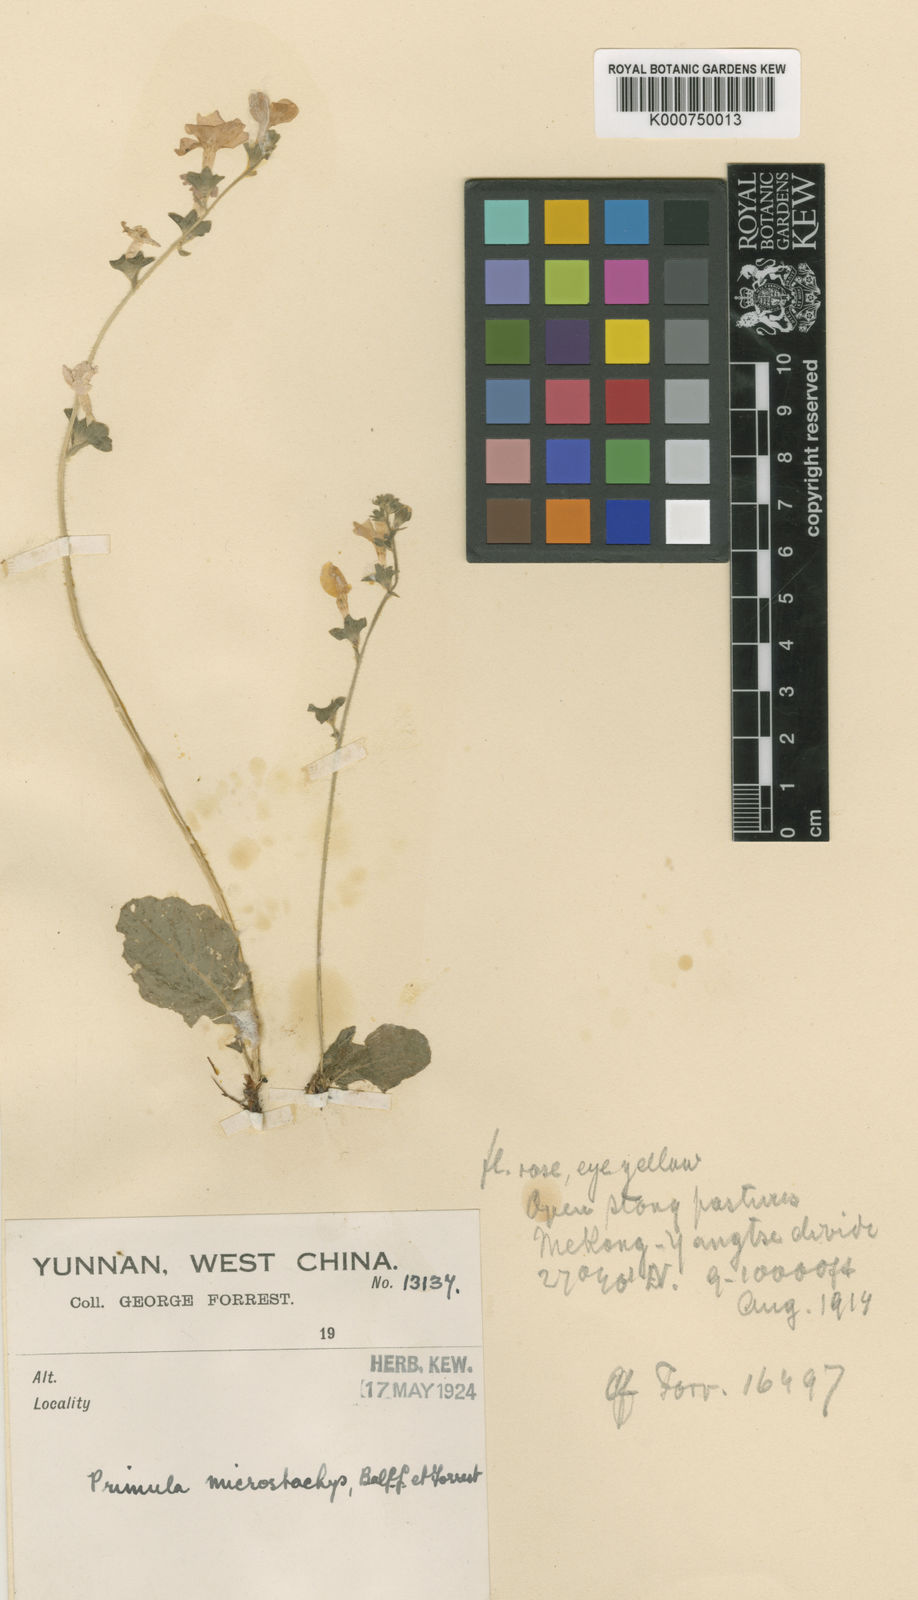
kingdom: Plantae
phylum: Tracheophyta
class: Magnoliopsida
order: Ericales
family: Primulaceae
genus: Primula
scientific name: Primula blattariformis
